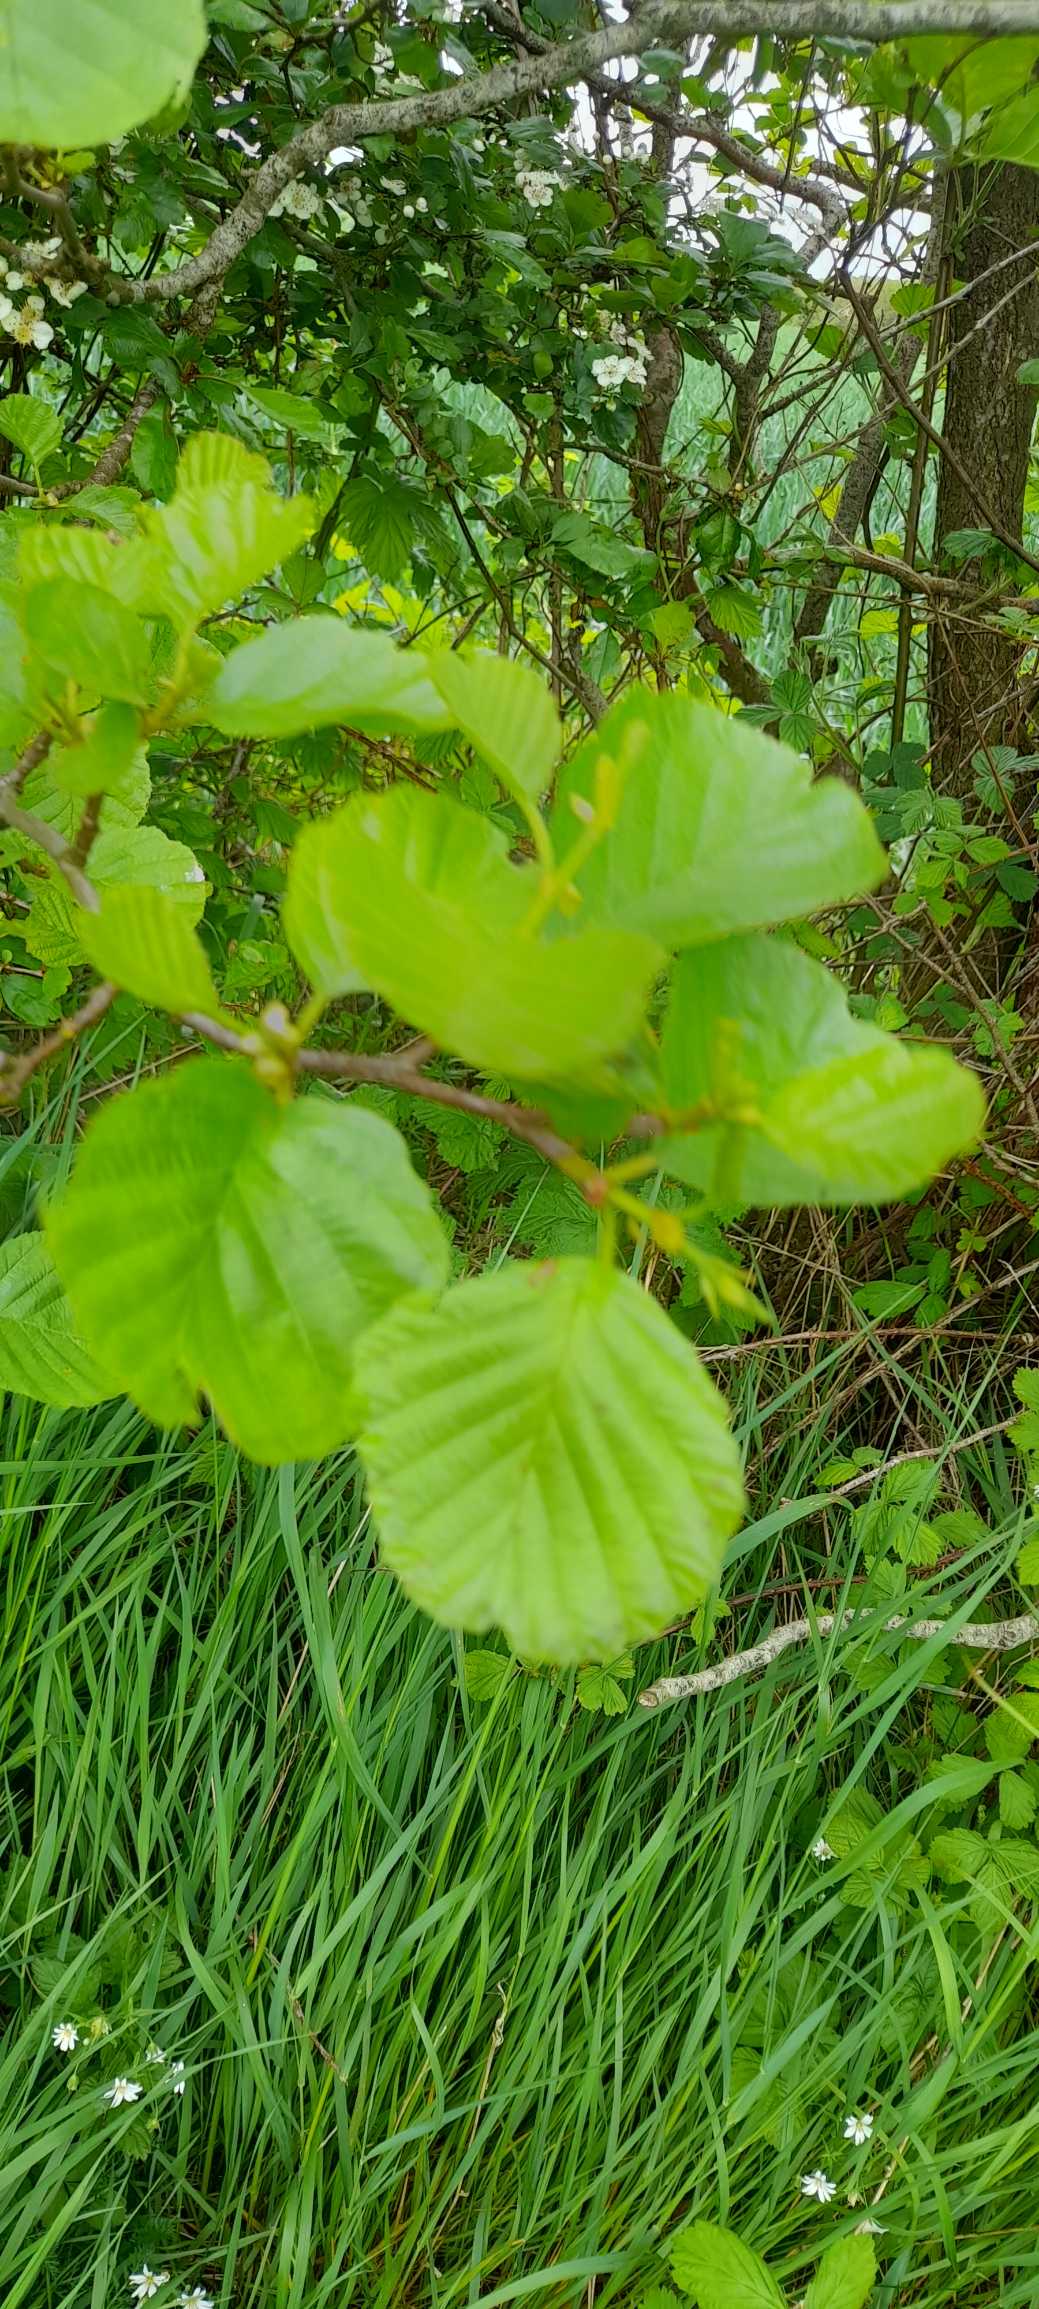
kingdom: Plantae
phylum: Tracheophyta
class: Magnoliopsida
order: Fagales
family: Betulaceae
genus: Alnus
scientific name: Alnus glutinosa
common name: Rød-el
